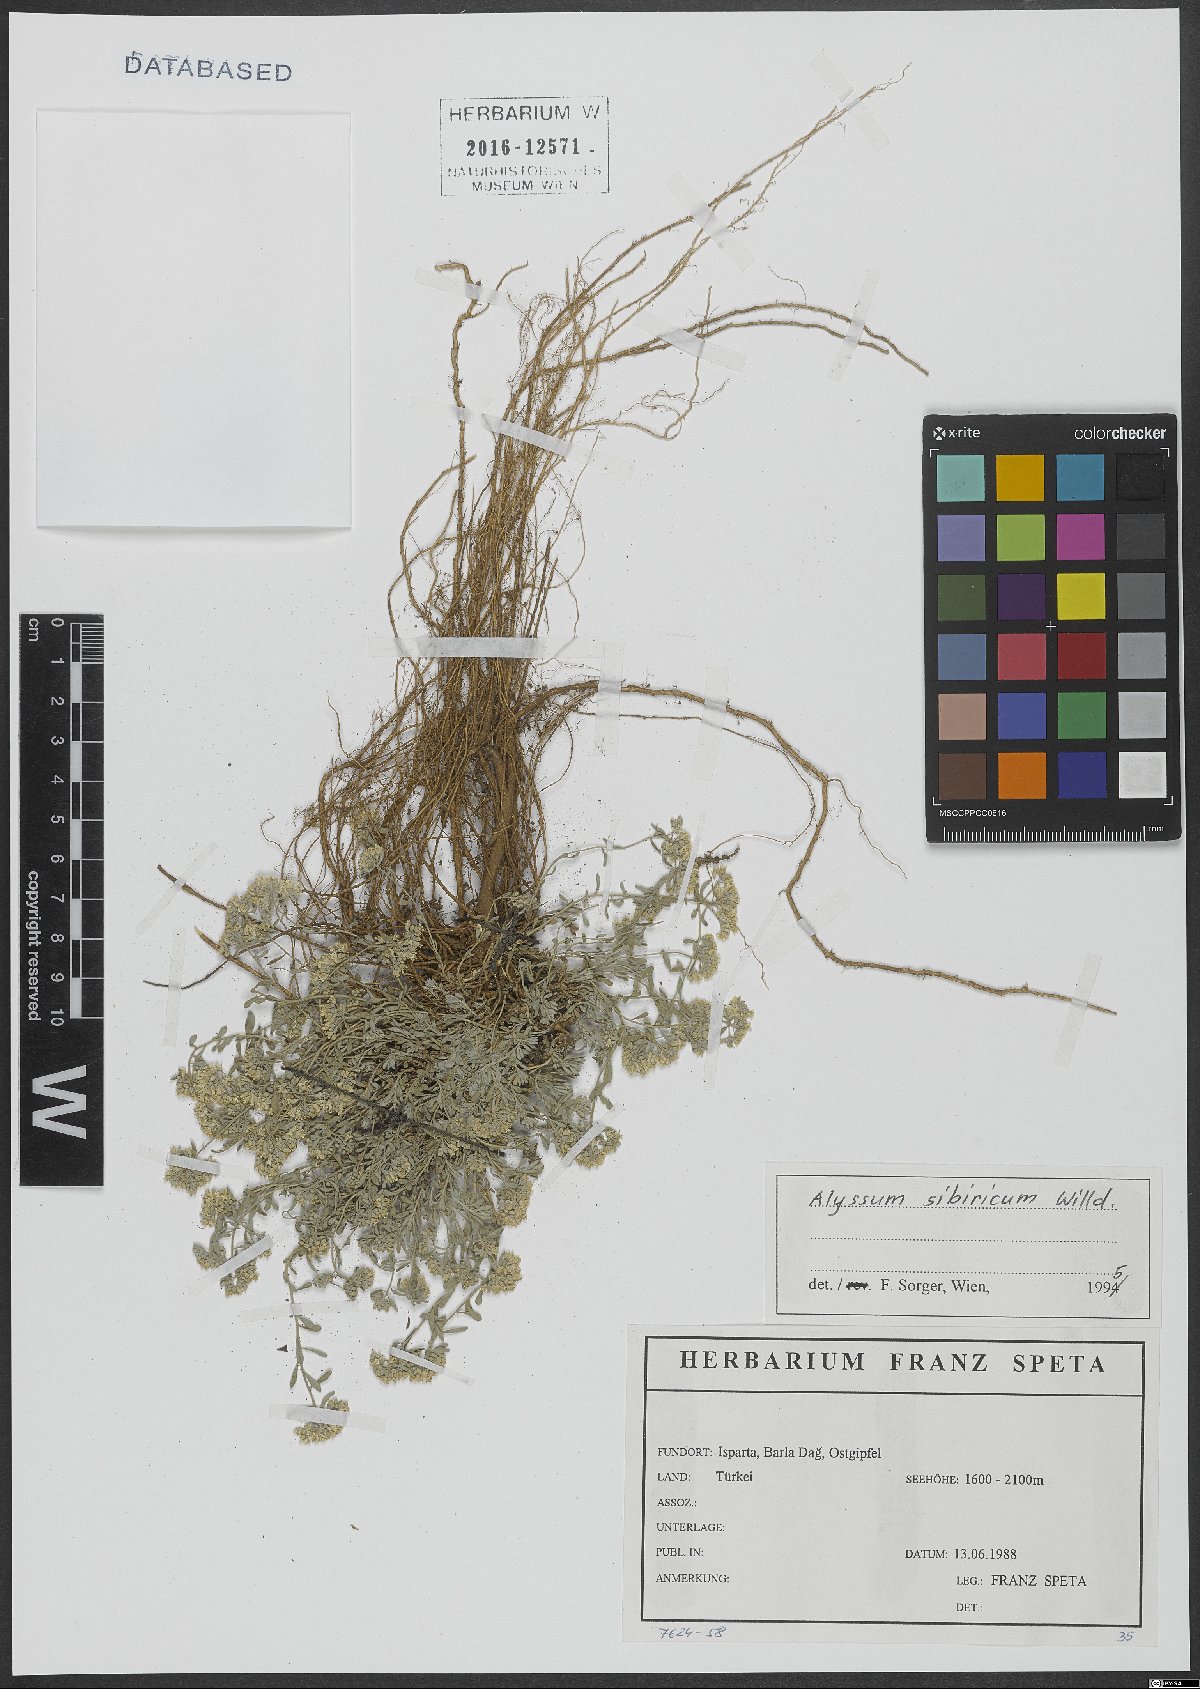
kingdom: Plantae
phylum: Tracheophyta
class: Magnoliopsida
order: Brassicales
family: Brassicaceae
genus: Odontarrhena
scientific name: Odontarrhena sibirica
